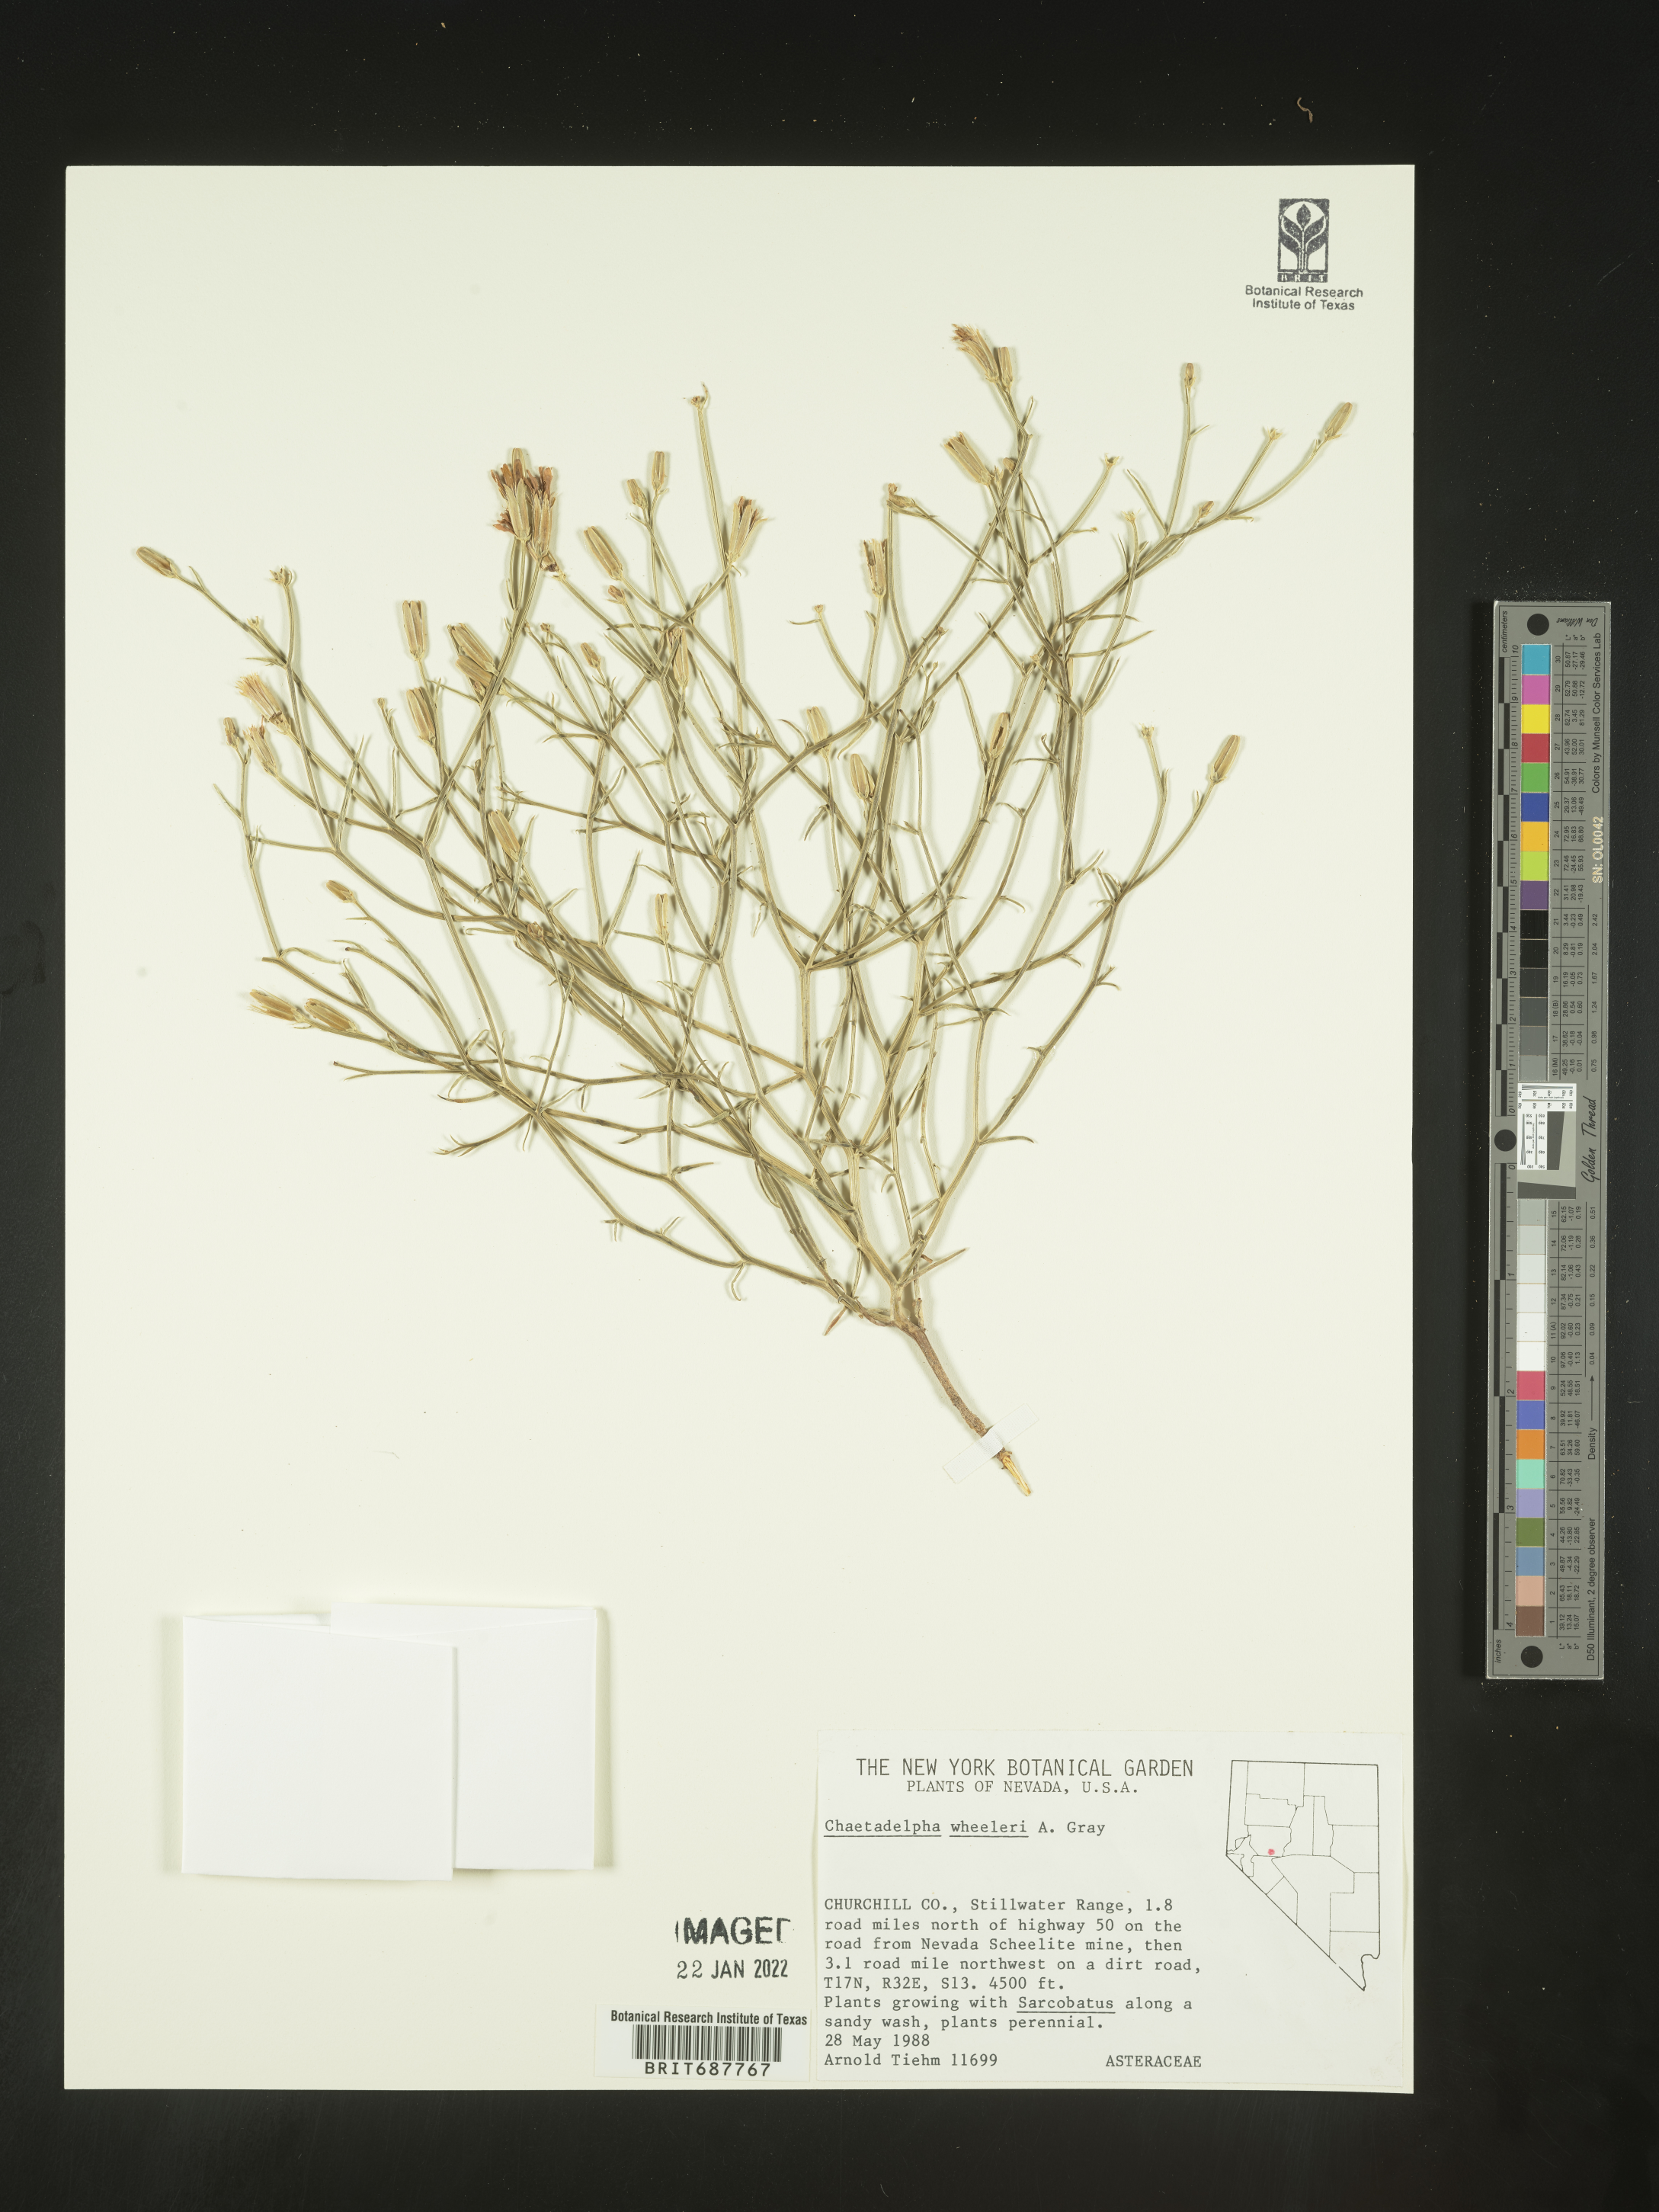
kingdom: Plantae
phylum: Tracheophyta
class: Magnoliopsida
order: Asterales
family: Asteraceae
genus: Chaetadelpha
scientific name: Chaetadelpha wheeleri
